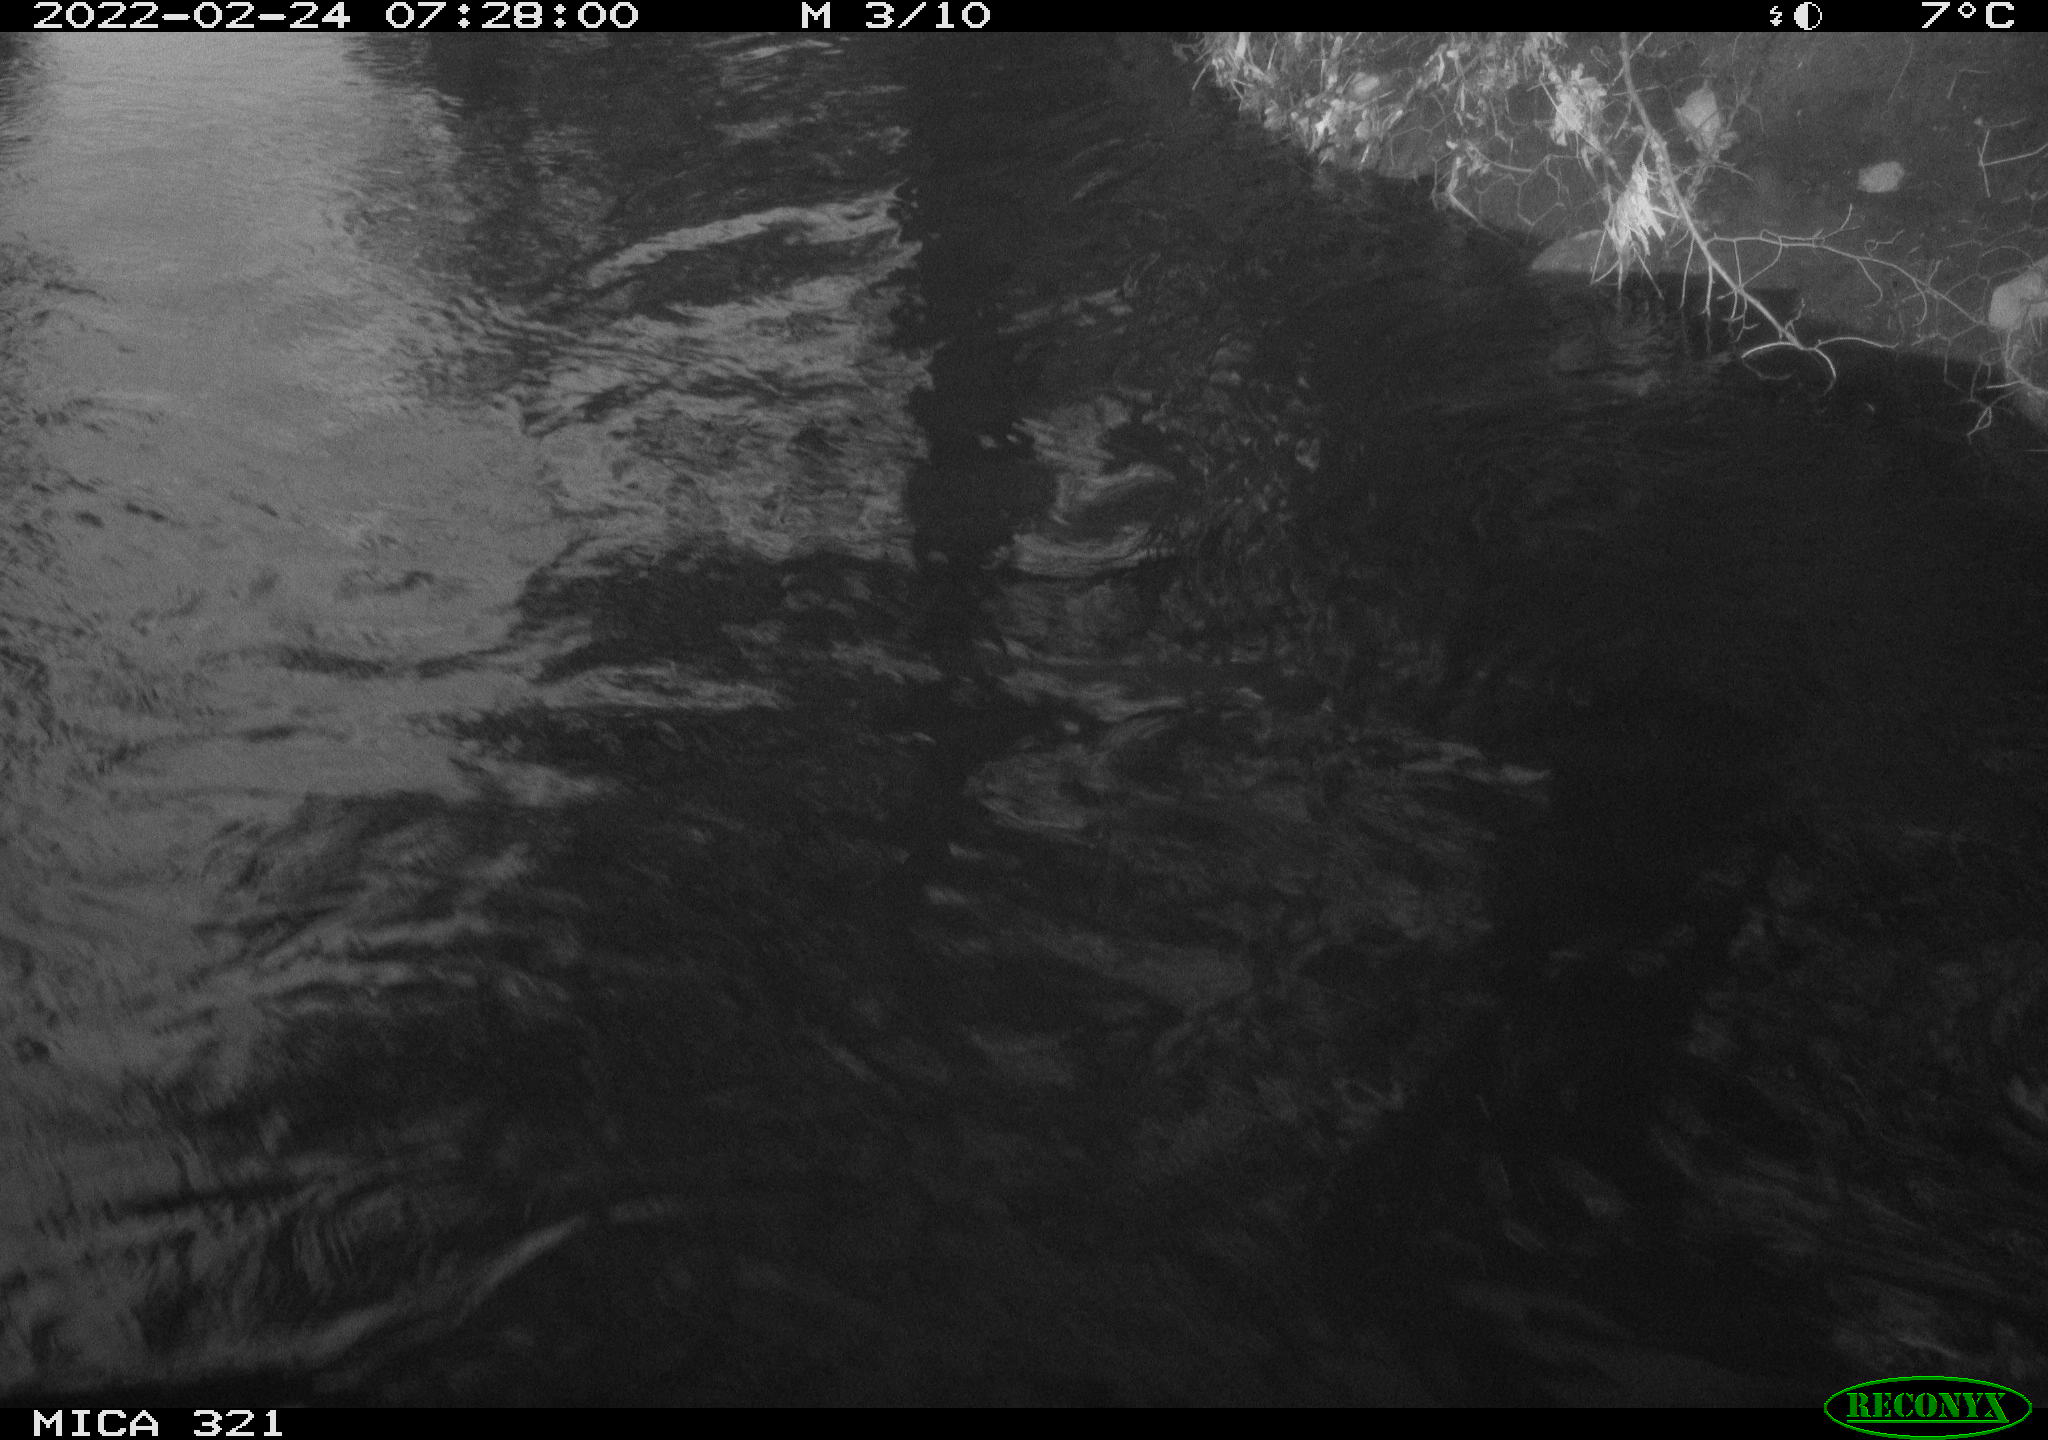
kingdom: Animalia
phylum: Chordata
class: Aves
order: Anseriformes
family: Anatidae
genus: Anas
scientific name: Anas platyrhynchos
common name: Mallard
